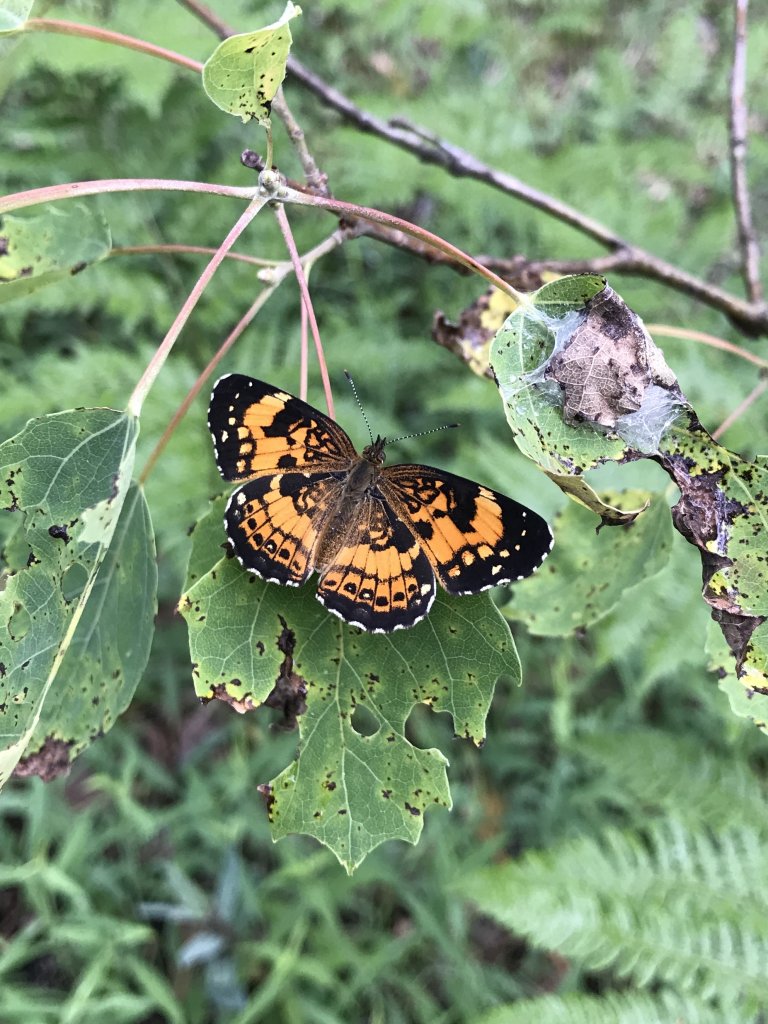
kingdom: Animalia
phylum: Arthropoda
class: Insecta
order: Lepidoptera
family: Nymphalidae
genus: Chlosyne
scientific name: Chlosyne nycteis
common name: Silvery Checkerspot
